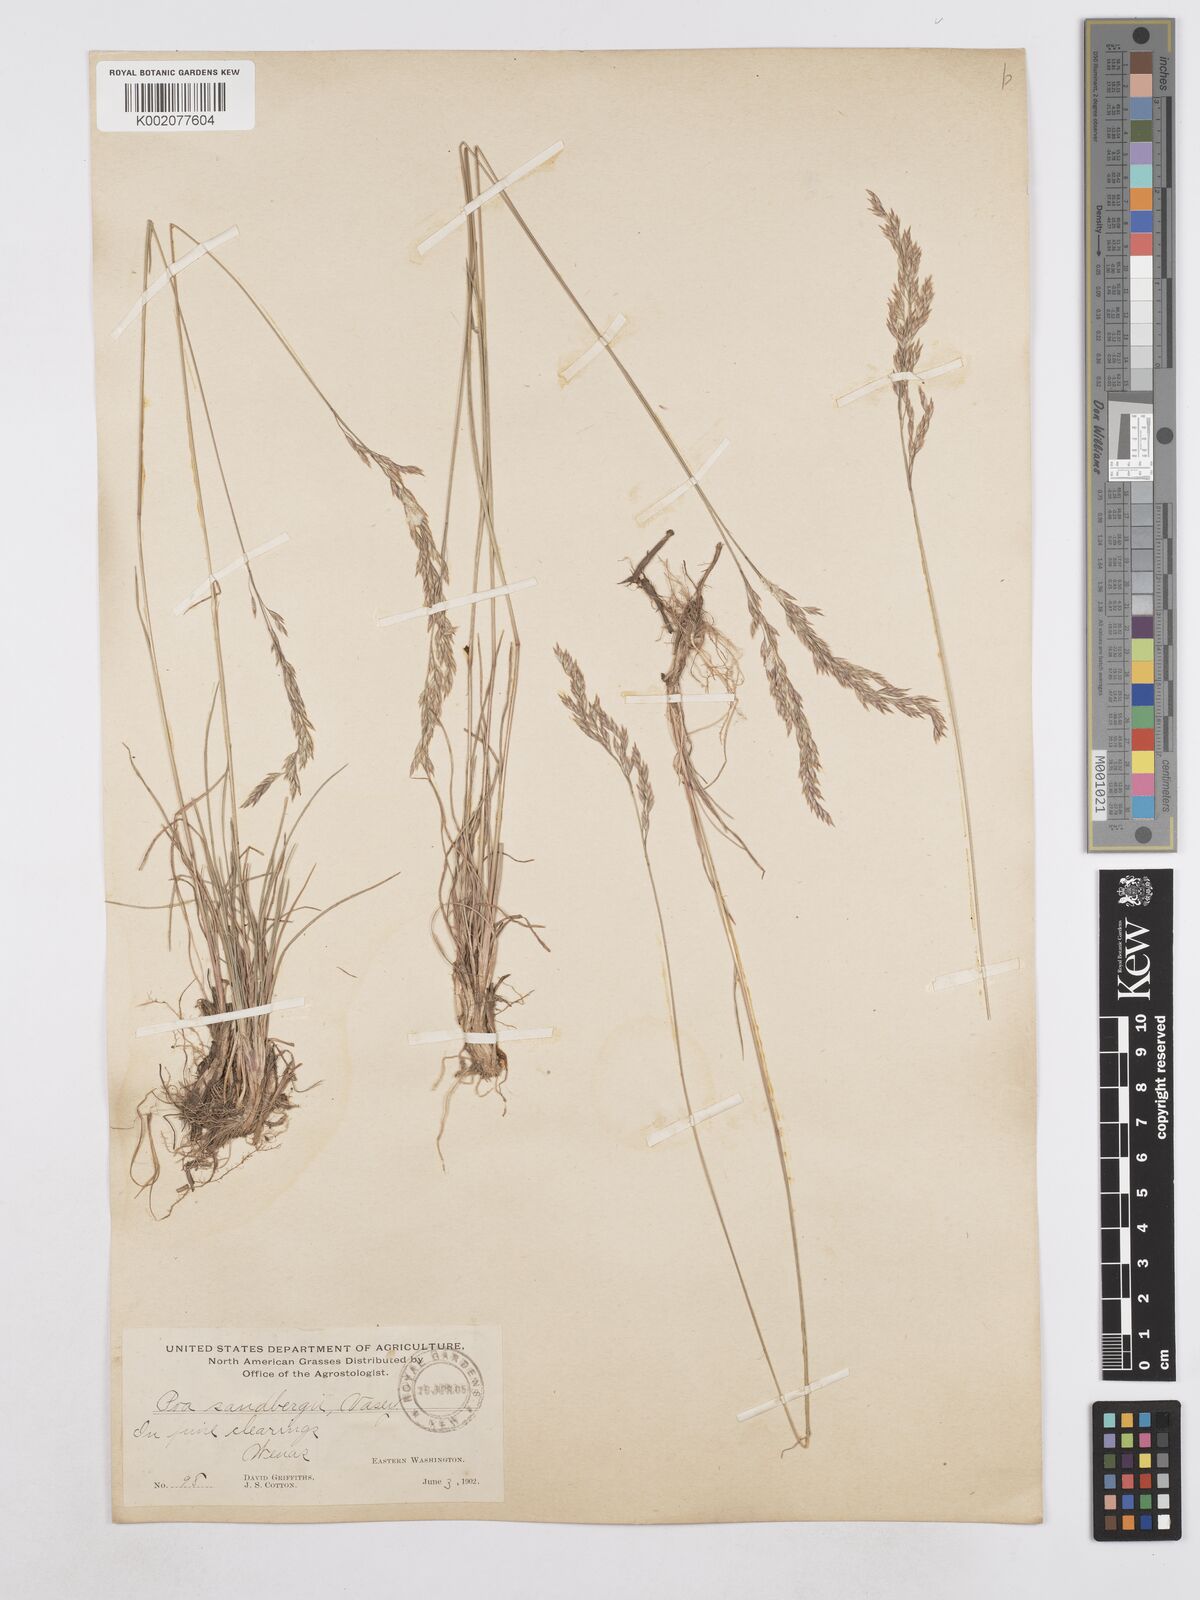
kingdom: Plantae
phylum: Tracheophyta
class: Liliopsida
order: Poales
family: Poaceae
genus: Poa
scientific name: Poa secunda
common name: Sandberg bluegrass
